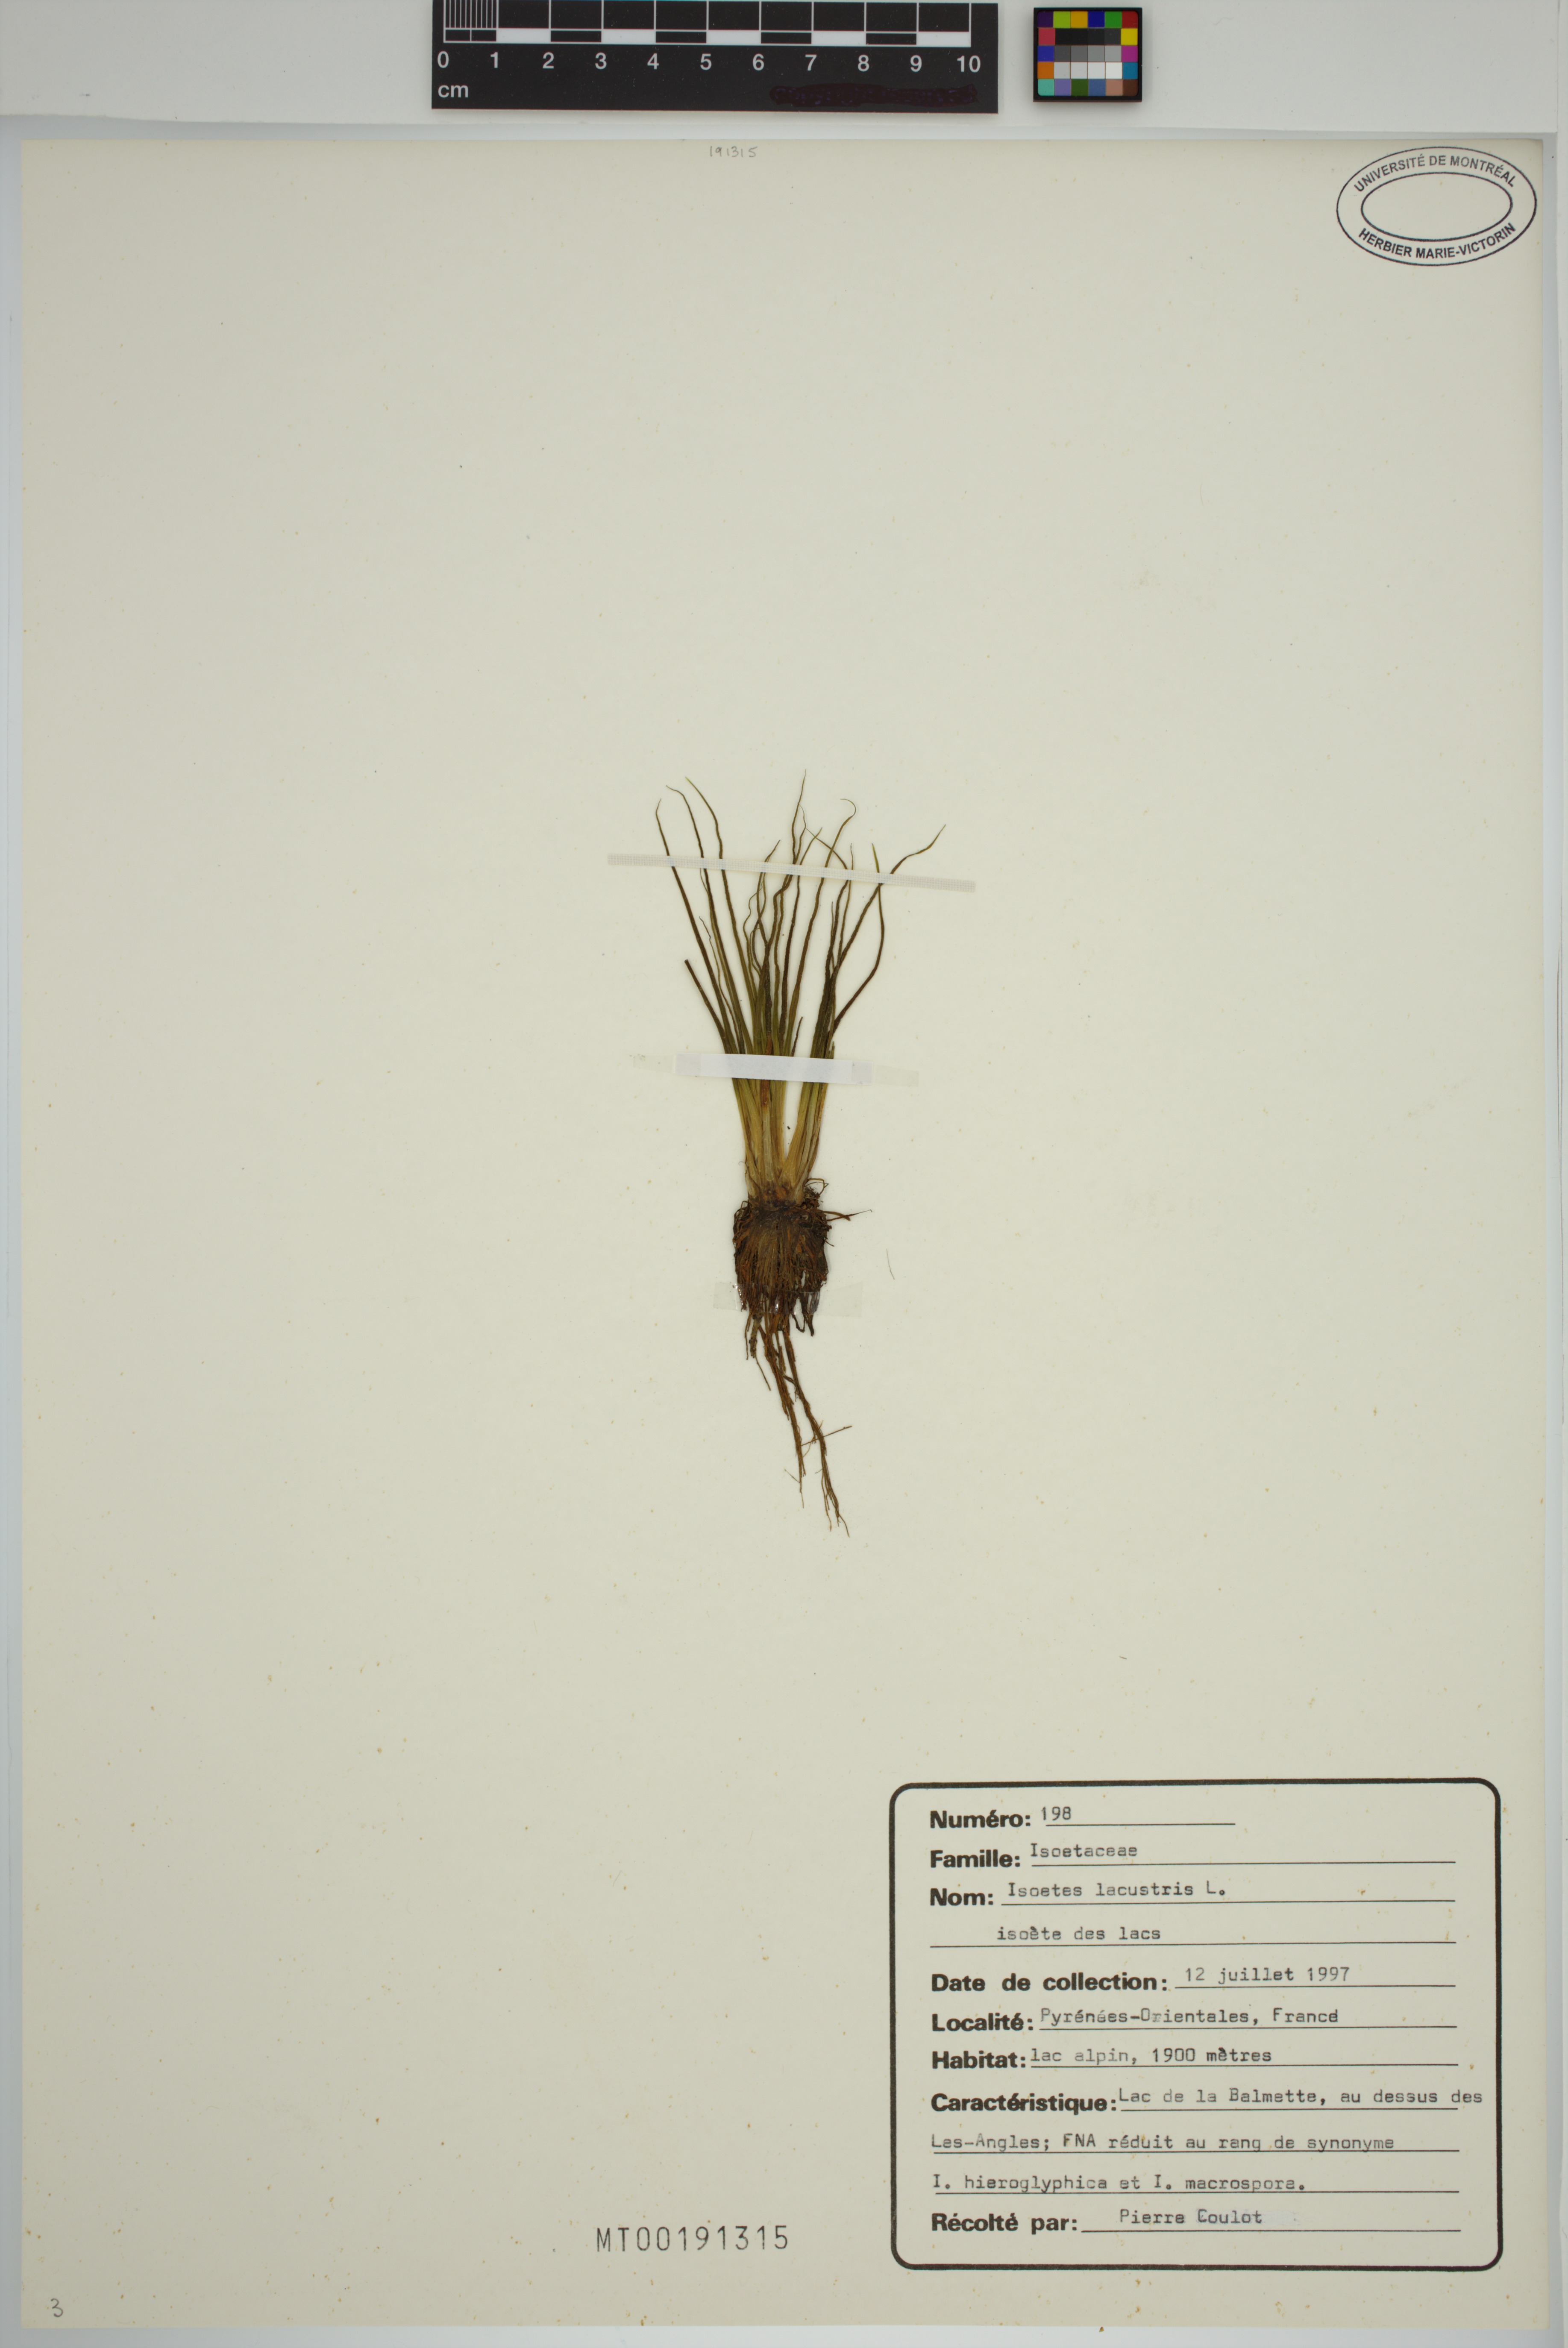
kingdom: Plantae
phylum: Tracheophyta
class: Lycopodiopsida
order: Isoetales
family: Isoetaceae
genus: Isoetes
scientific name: Isoetes lacustris
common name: Common quillwort
